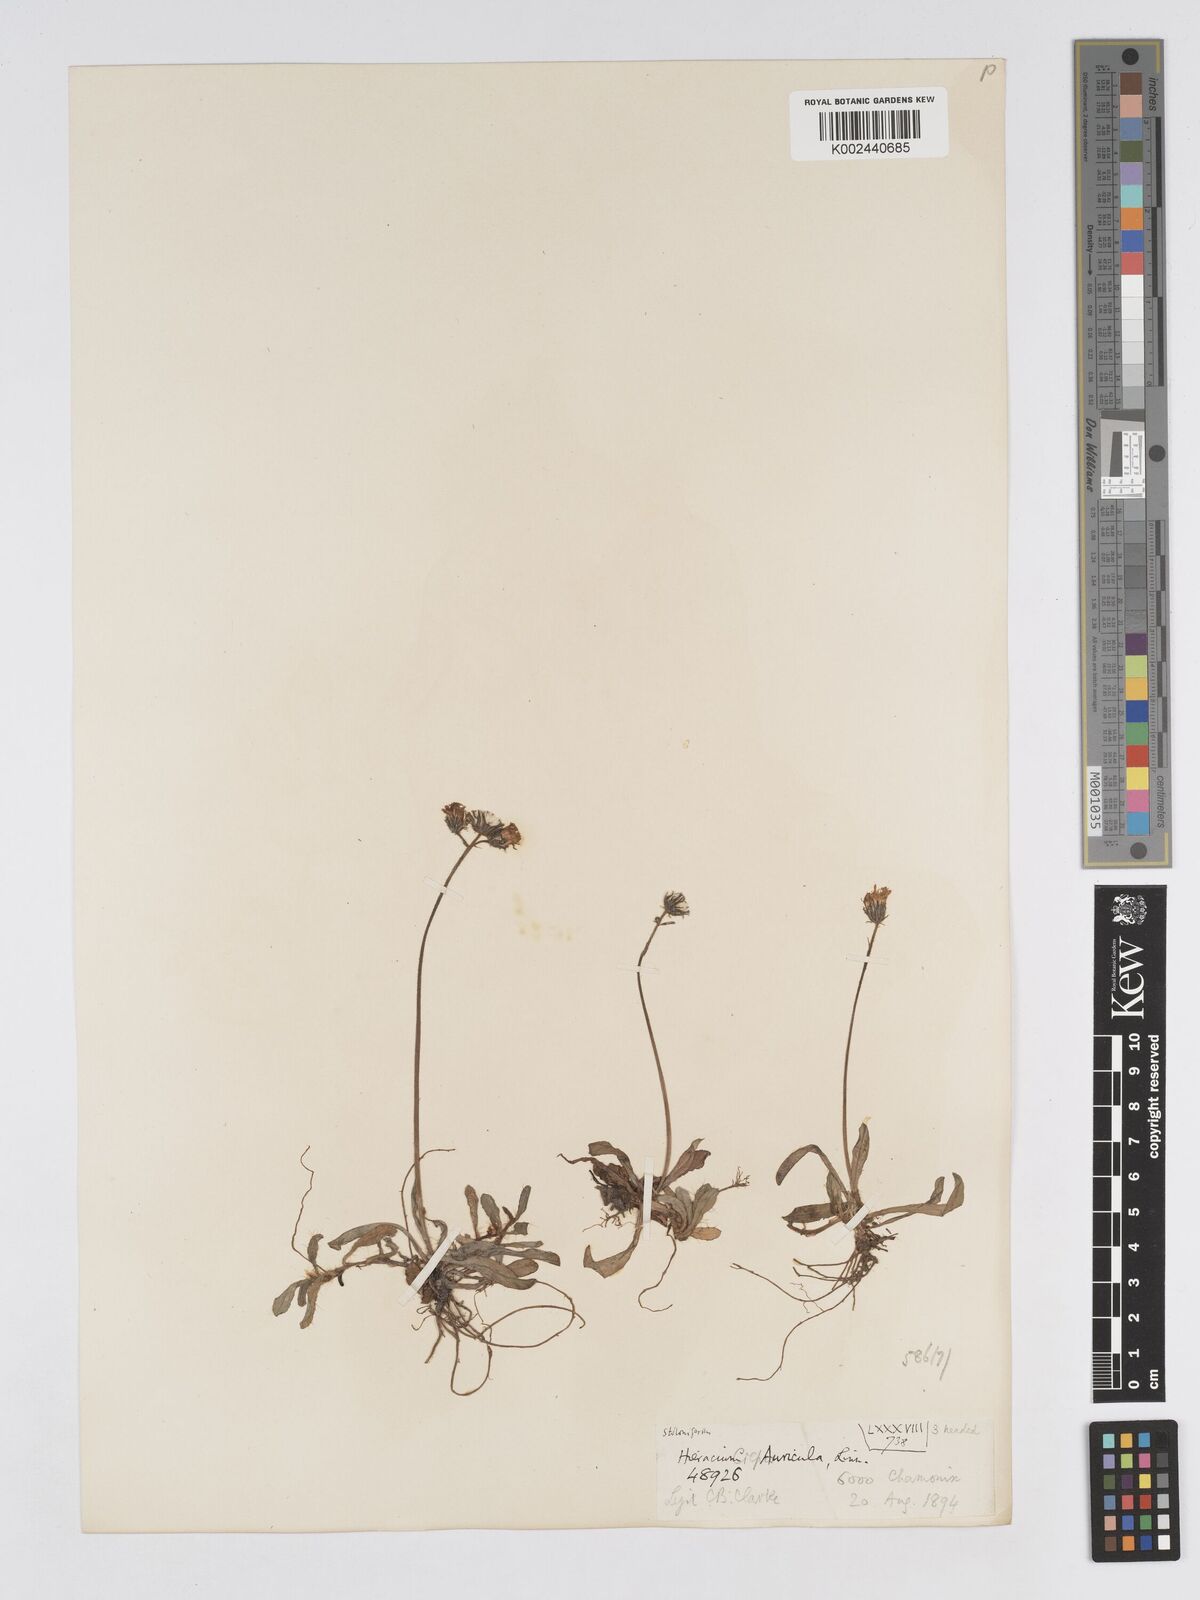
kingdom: Plantae
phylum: Tracheophyta
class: Magnoliopsida
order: Asterales
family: Asteraceae
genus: Pilosella
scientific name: Pilosella floribunda
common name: Glaucous hawkweed
